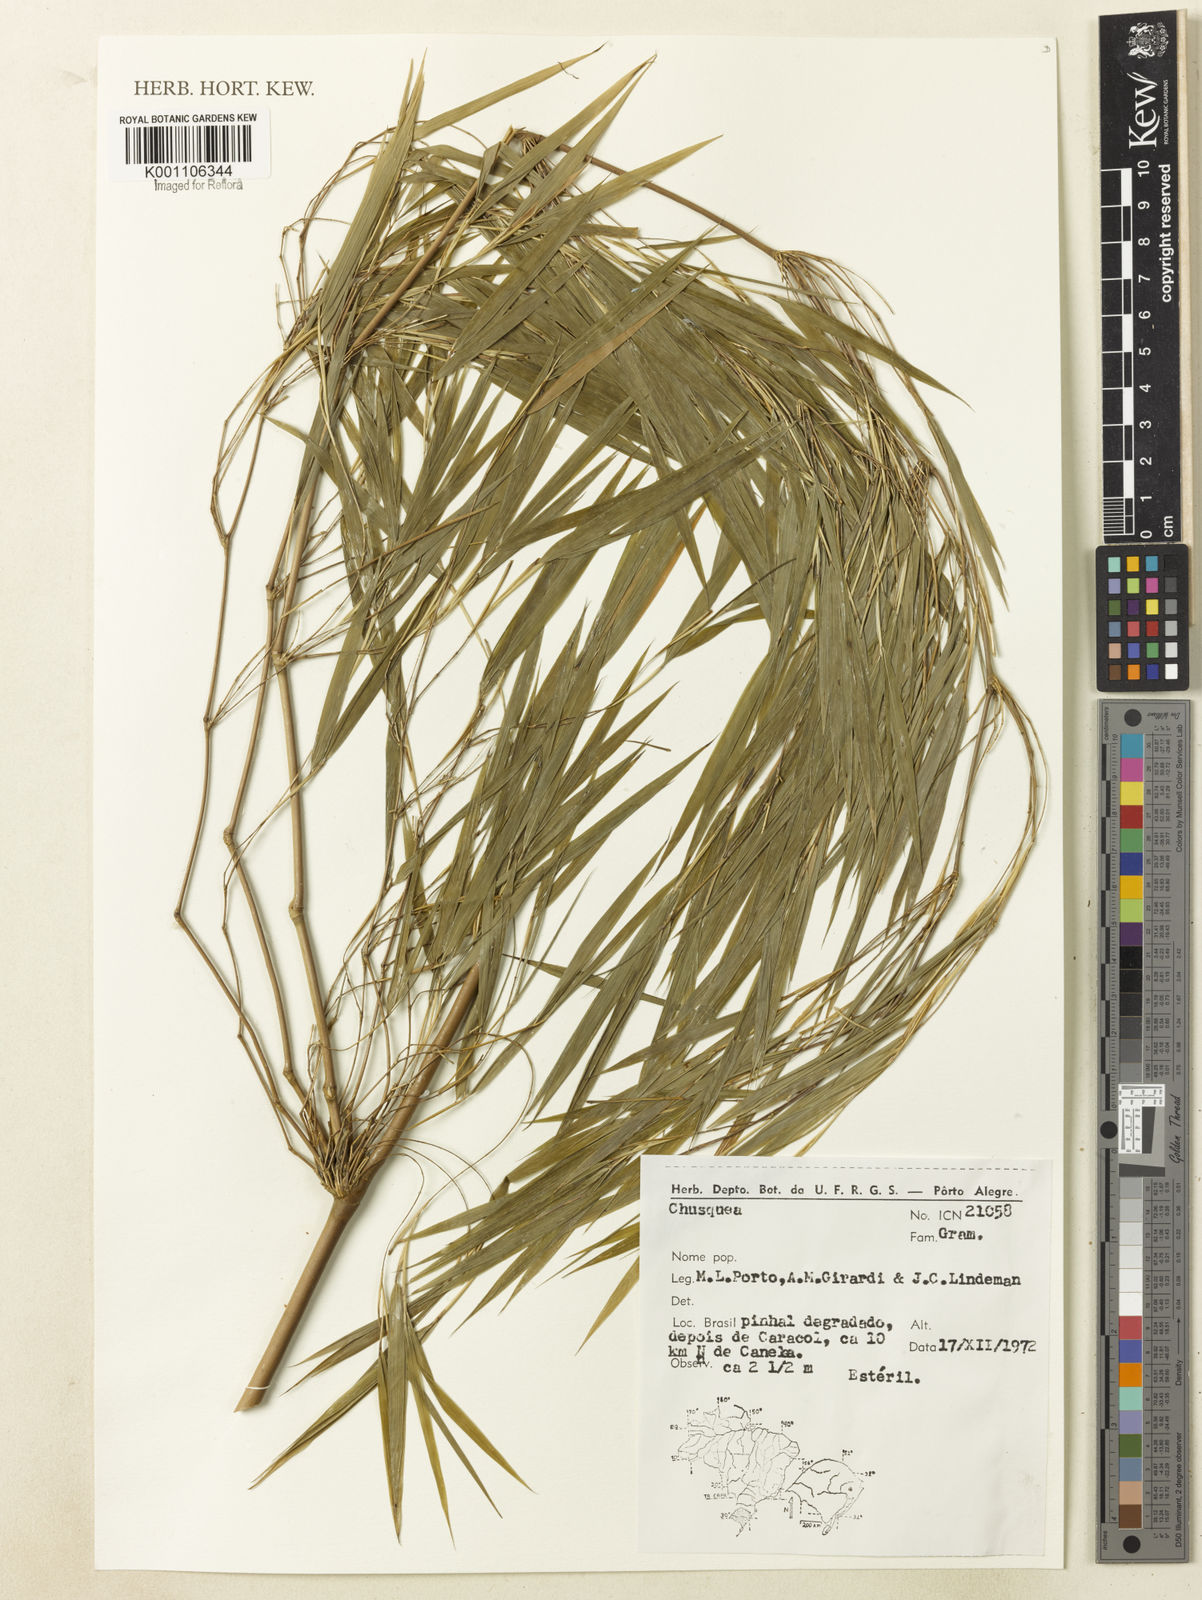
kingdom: Plantae
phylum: Tracheophyta
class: Liliopsida
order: Poales
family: Poaceae
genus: Chusquea
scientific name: Chusquea
